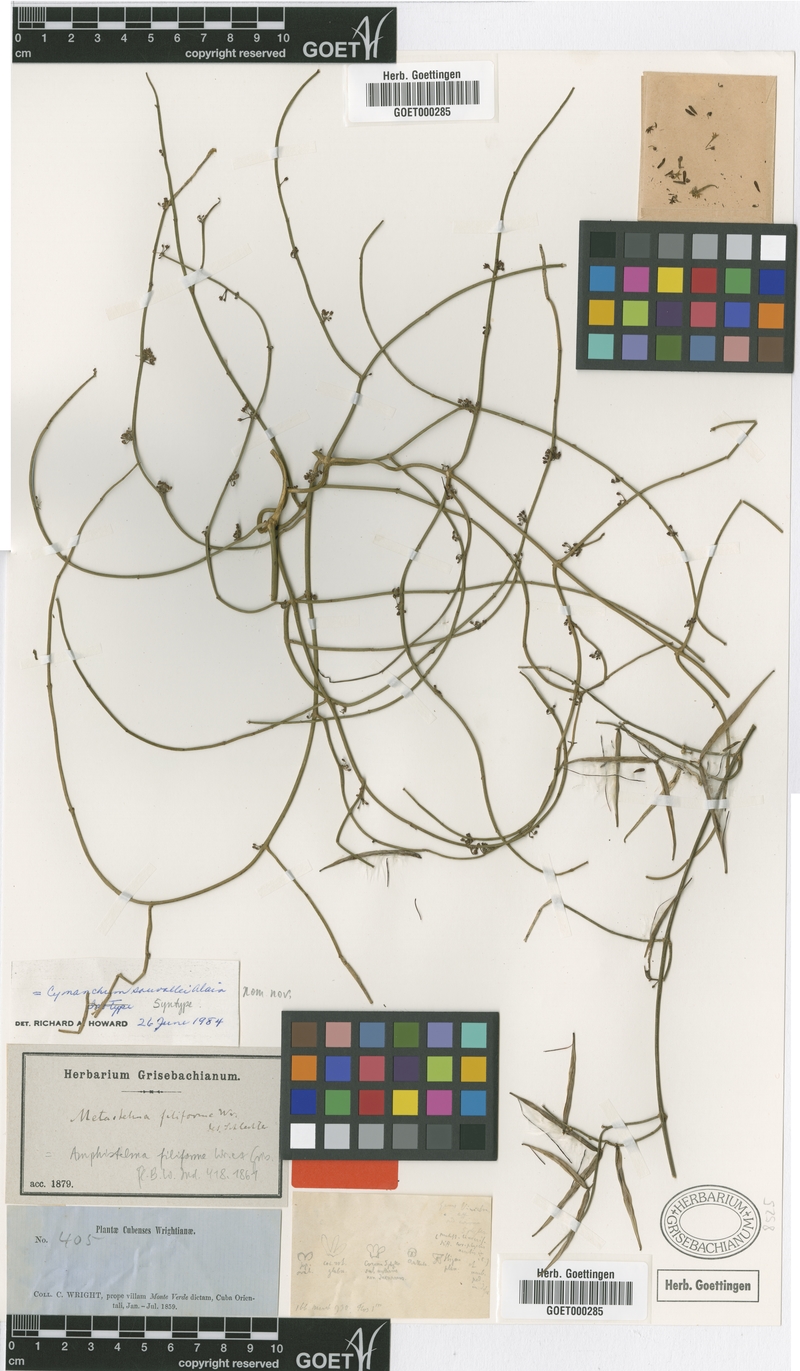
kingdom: Plantae
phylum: Tracheophyta
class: Magnoliopsida
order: Gentianales
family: Apocynaceae
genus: Orthosia
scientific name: Orthosia scoparia
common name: Leafless swallow-wort
